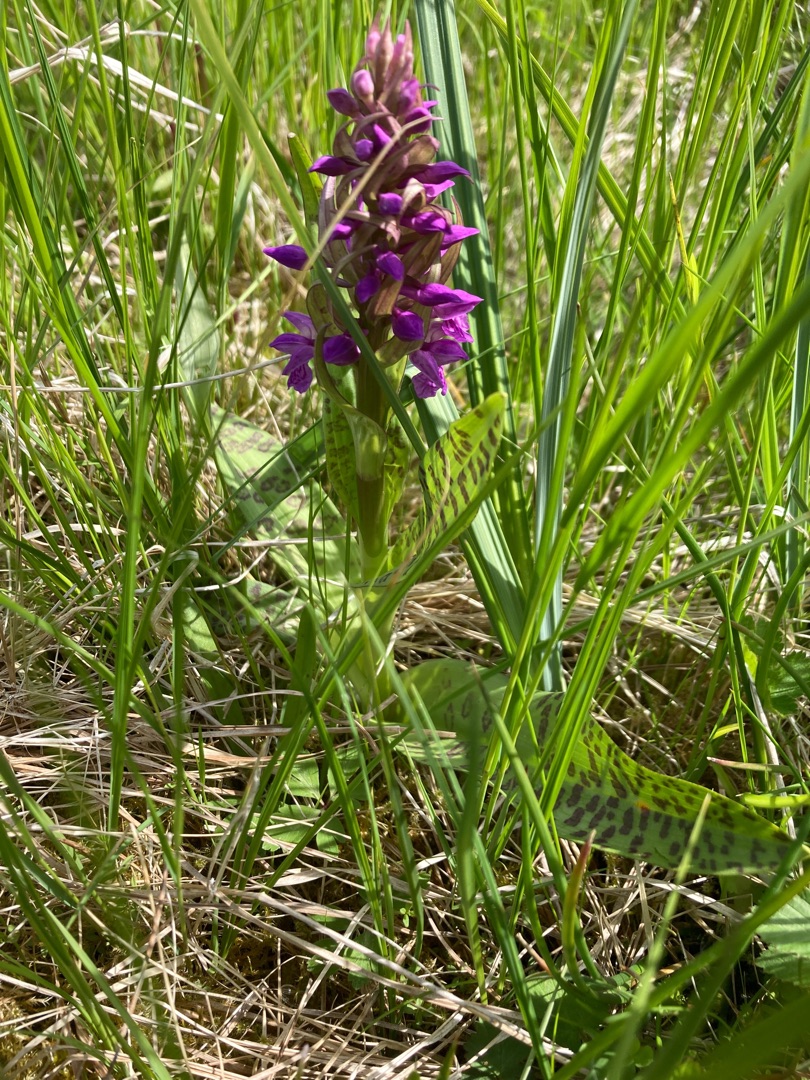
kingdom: Plantae
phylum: Tracheophyta
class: Liliopsida
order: Asparagales
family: Orchidaceae
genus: Dactylorhiza
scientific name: Dactylorhiza majalis
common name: Maj-gøgeurt
